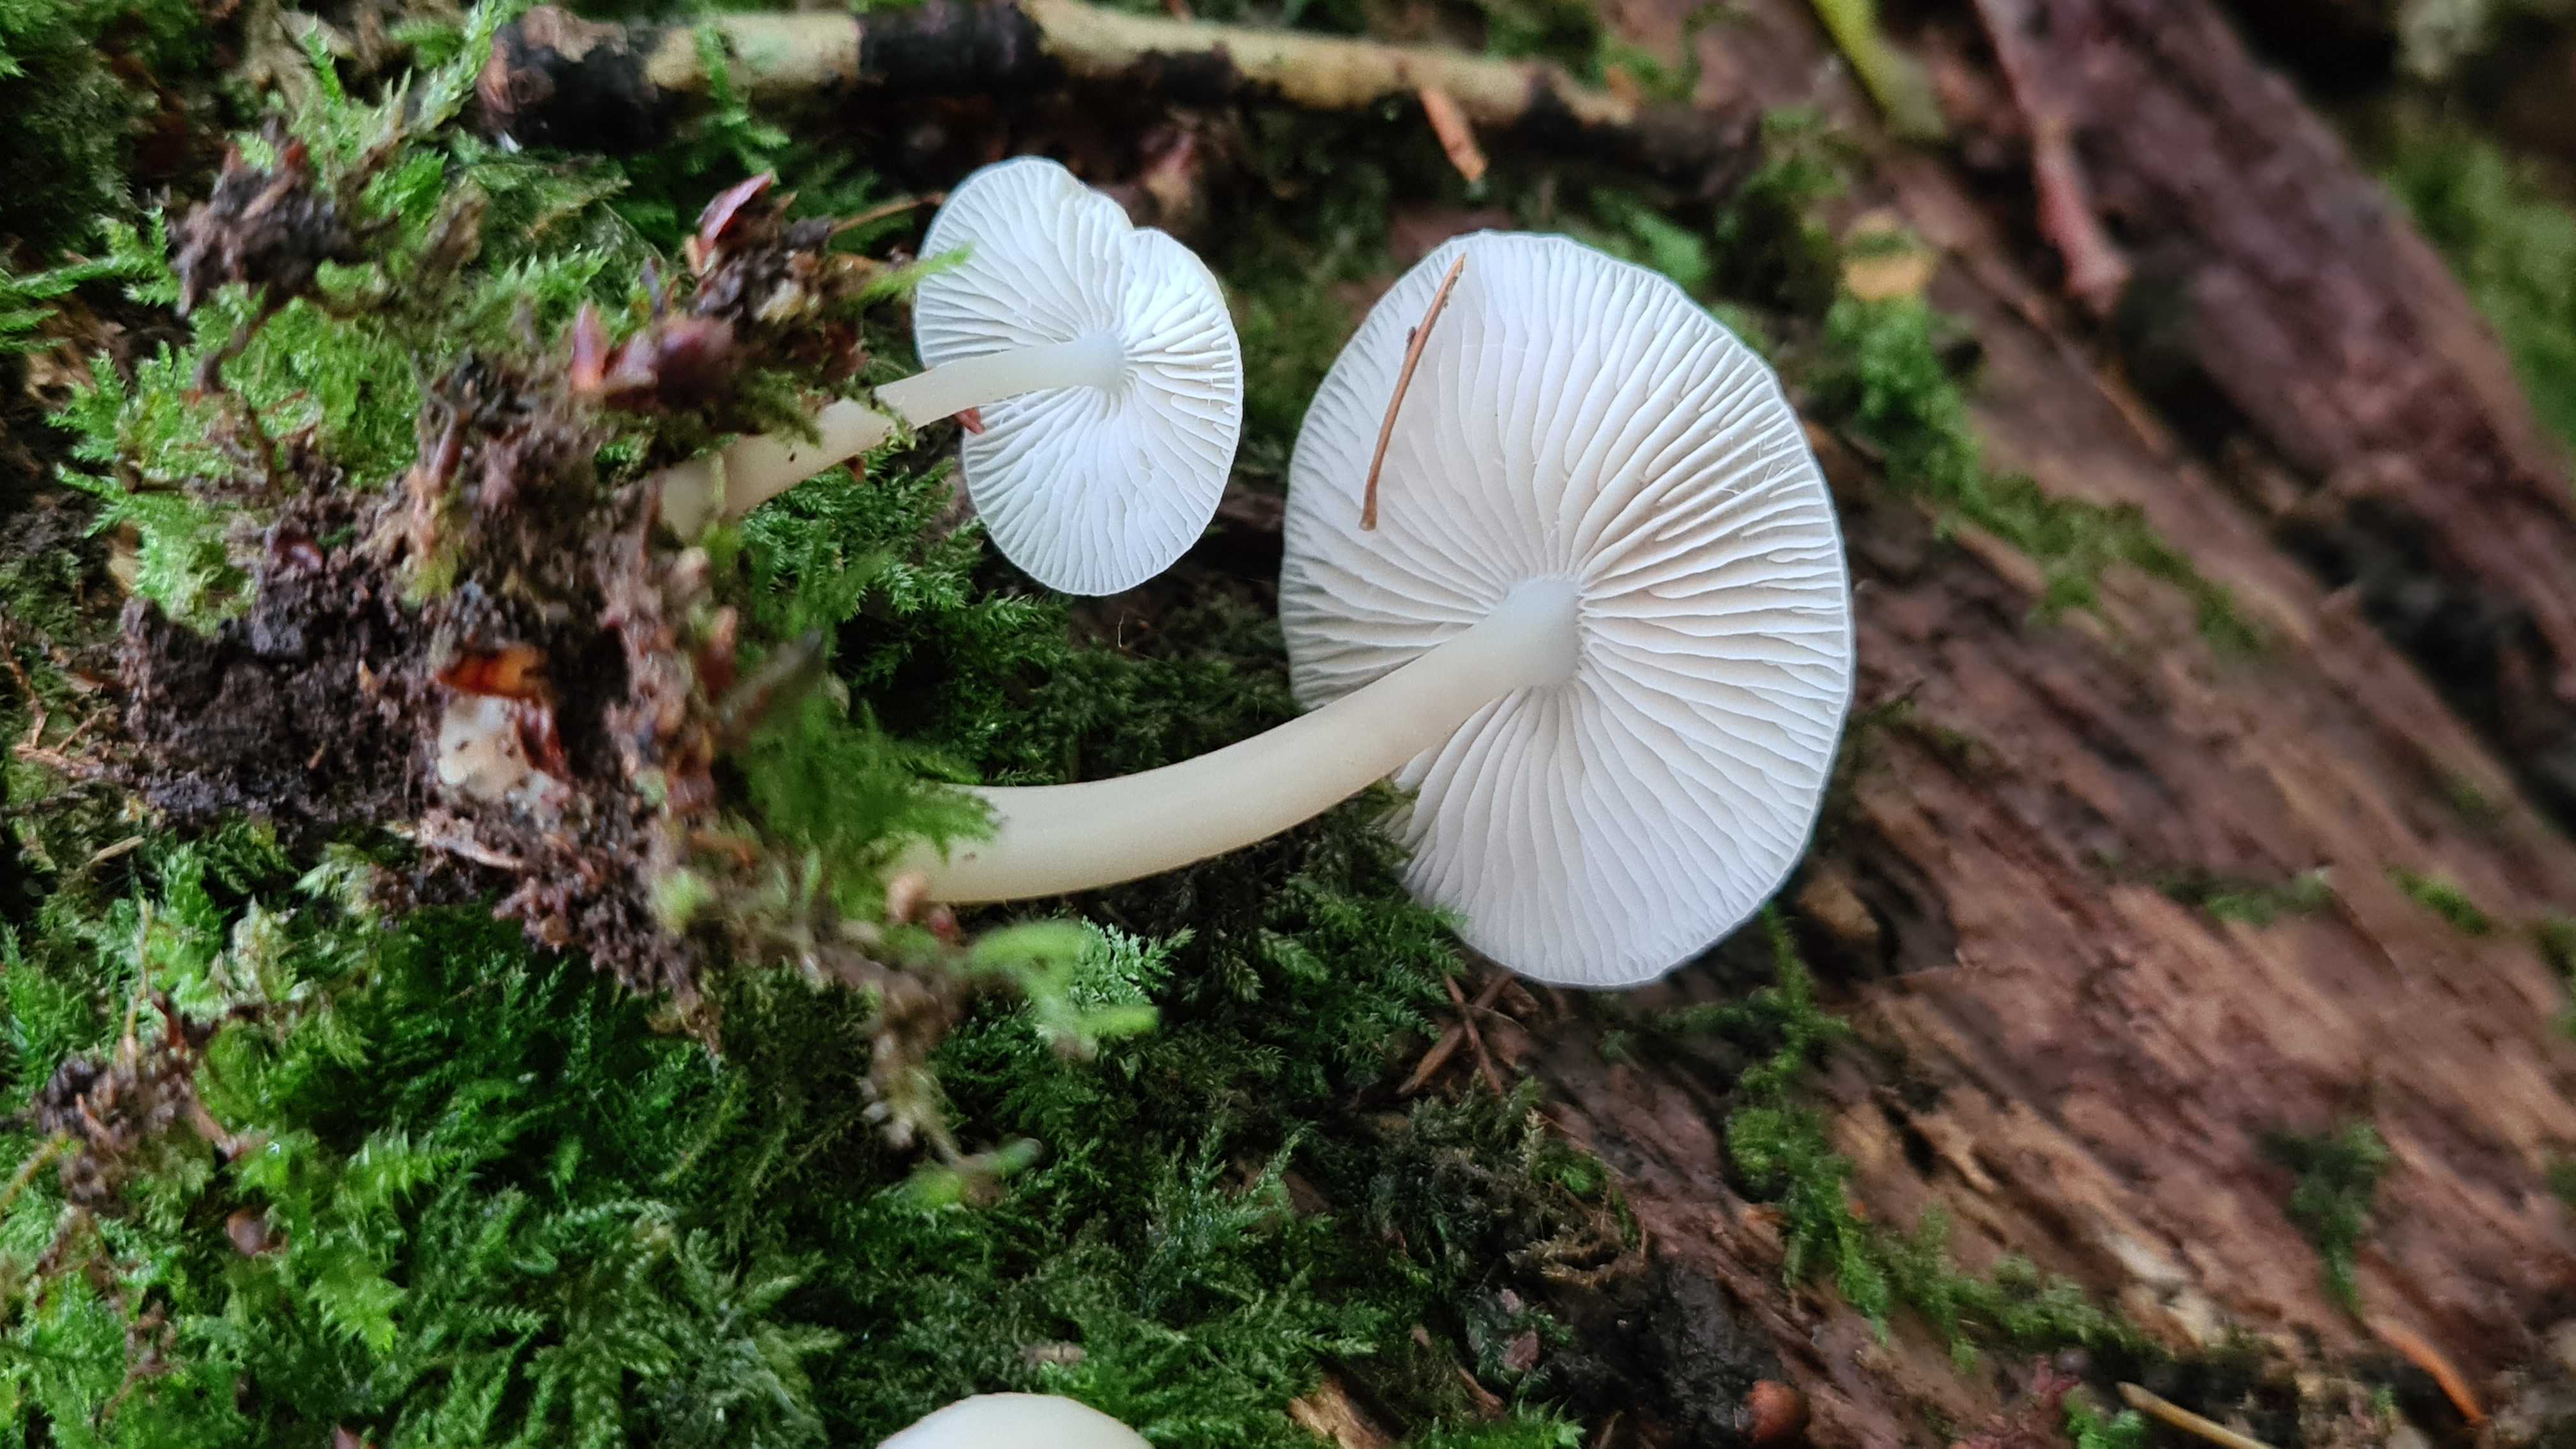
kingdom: Fungi
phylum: Basidiomycota
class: Agaricomycetes
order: Agaricales
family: Mycenaceae
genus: Mycena
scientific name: Mycena galericulata
